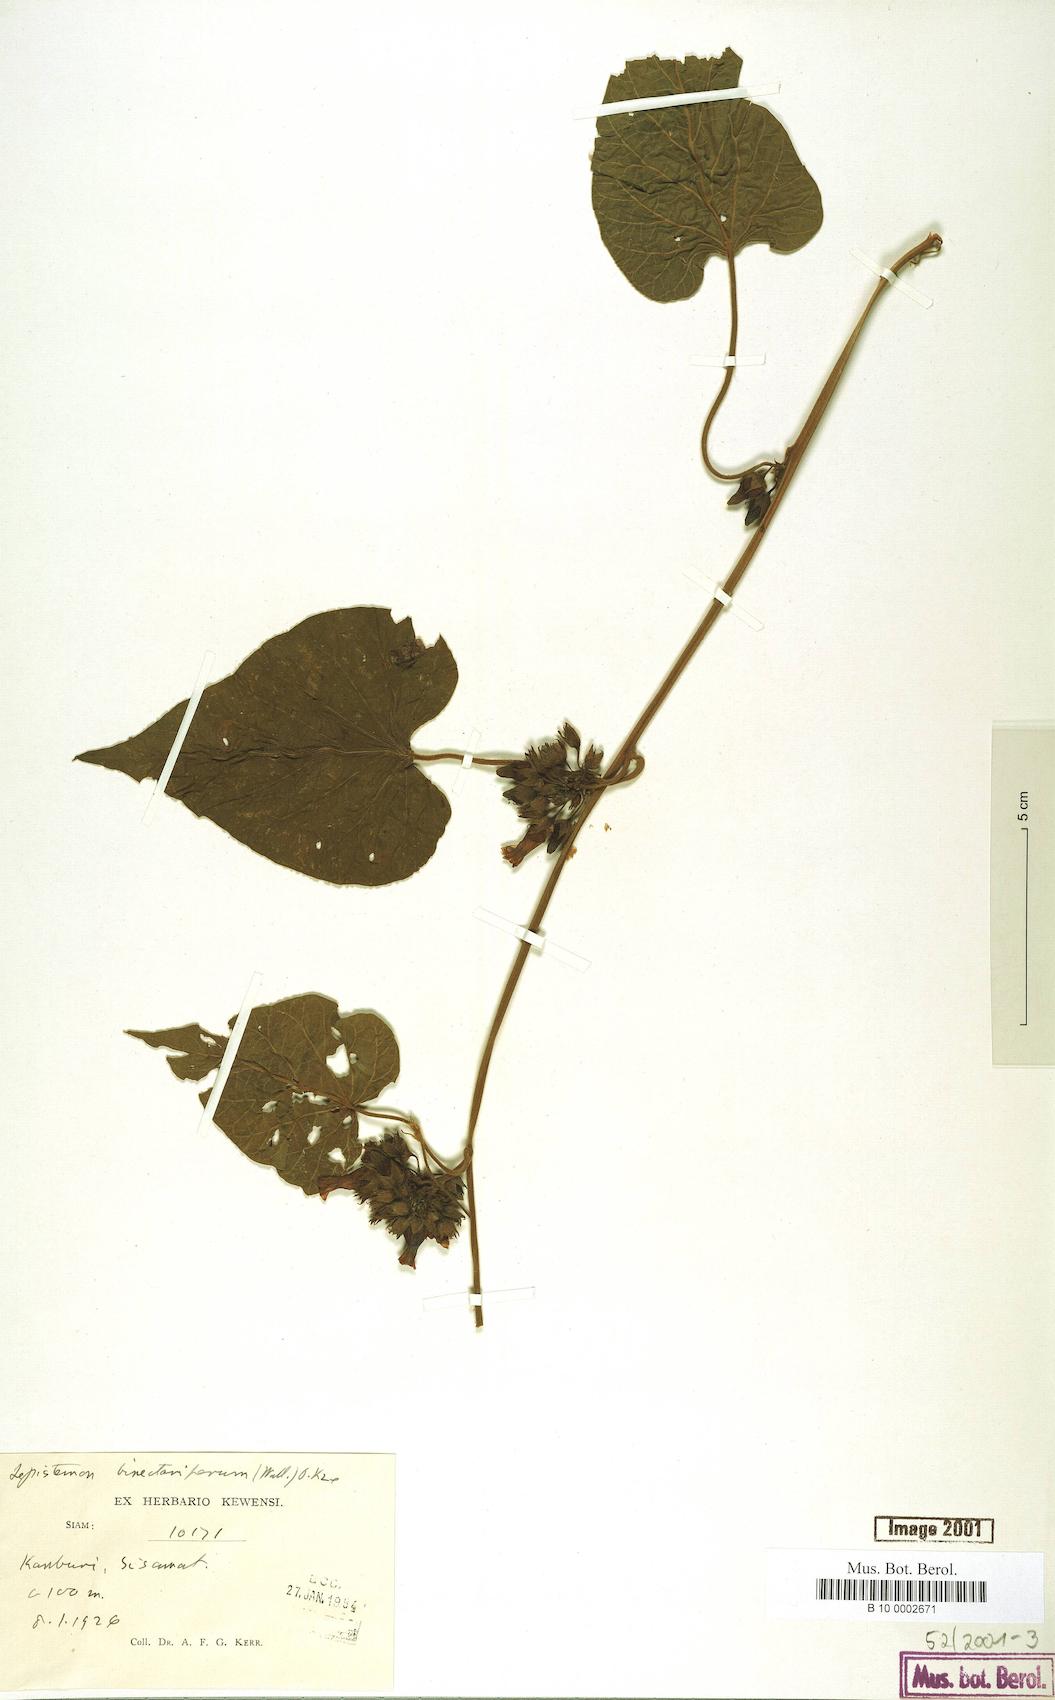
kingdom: Plantae
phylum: Tracheophyta
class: Magnoliopsida
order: Solanales
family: Convolvulaceae
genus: Lepistemon
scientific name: Lepistemon binectariferum
